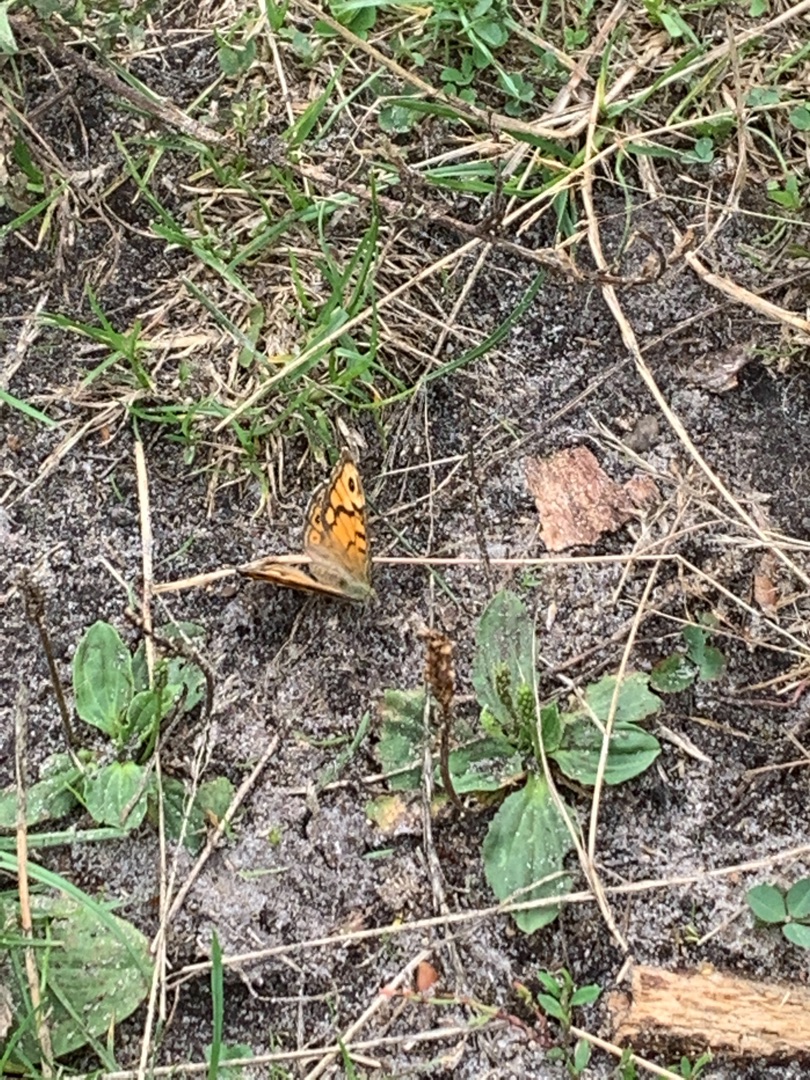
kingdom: Animalia
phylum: Arthropoda
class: Insecta
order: Lepidoptera
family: Nymphalidae
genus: Pararge
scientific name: Pararge Lasiommata megera
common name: Vejrandøje
